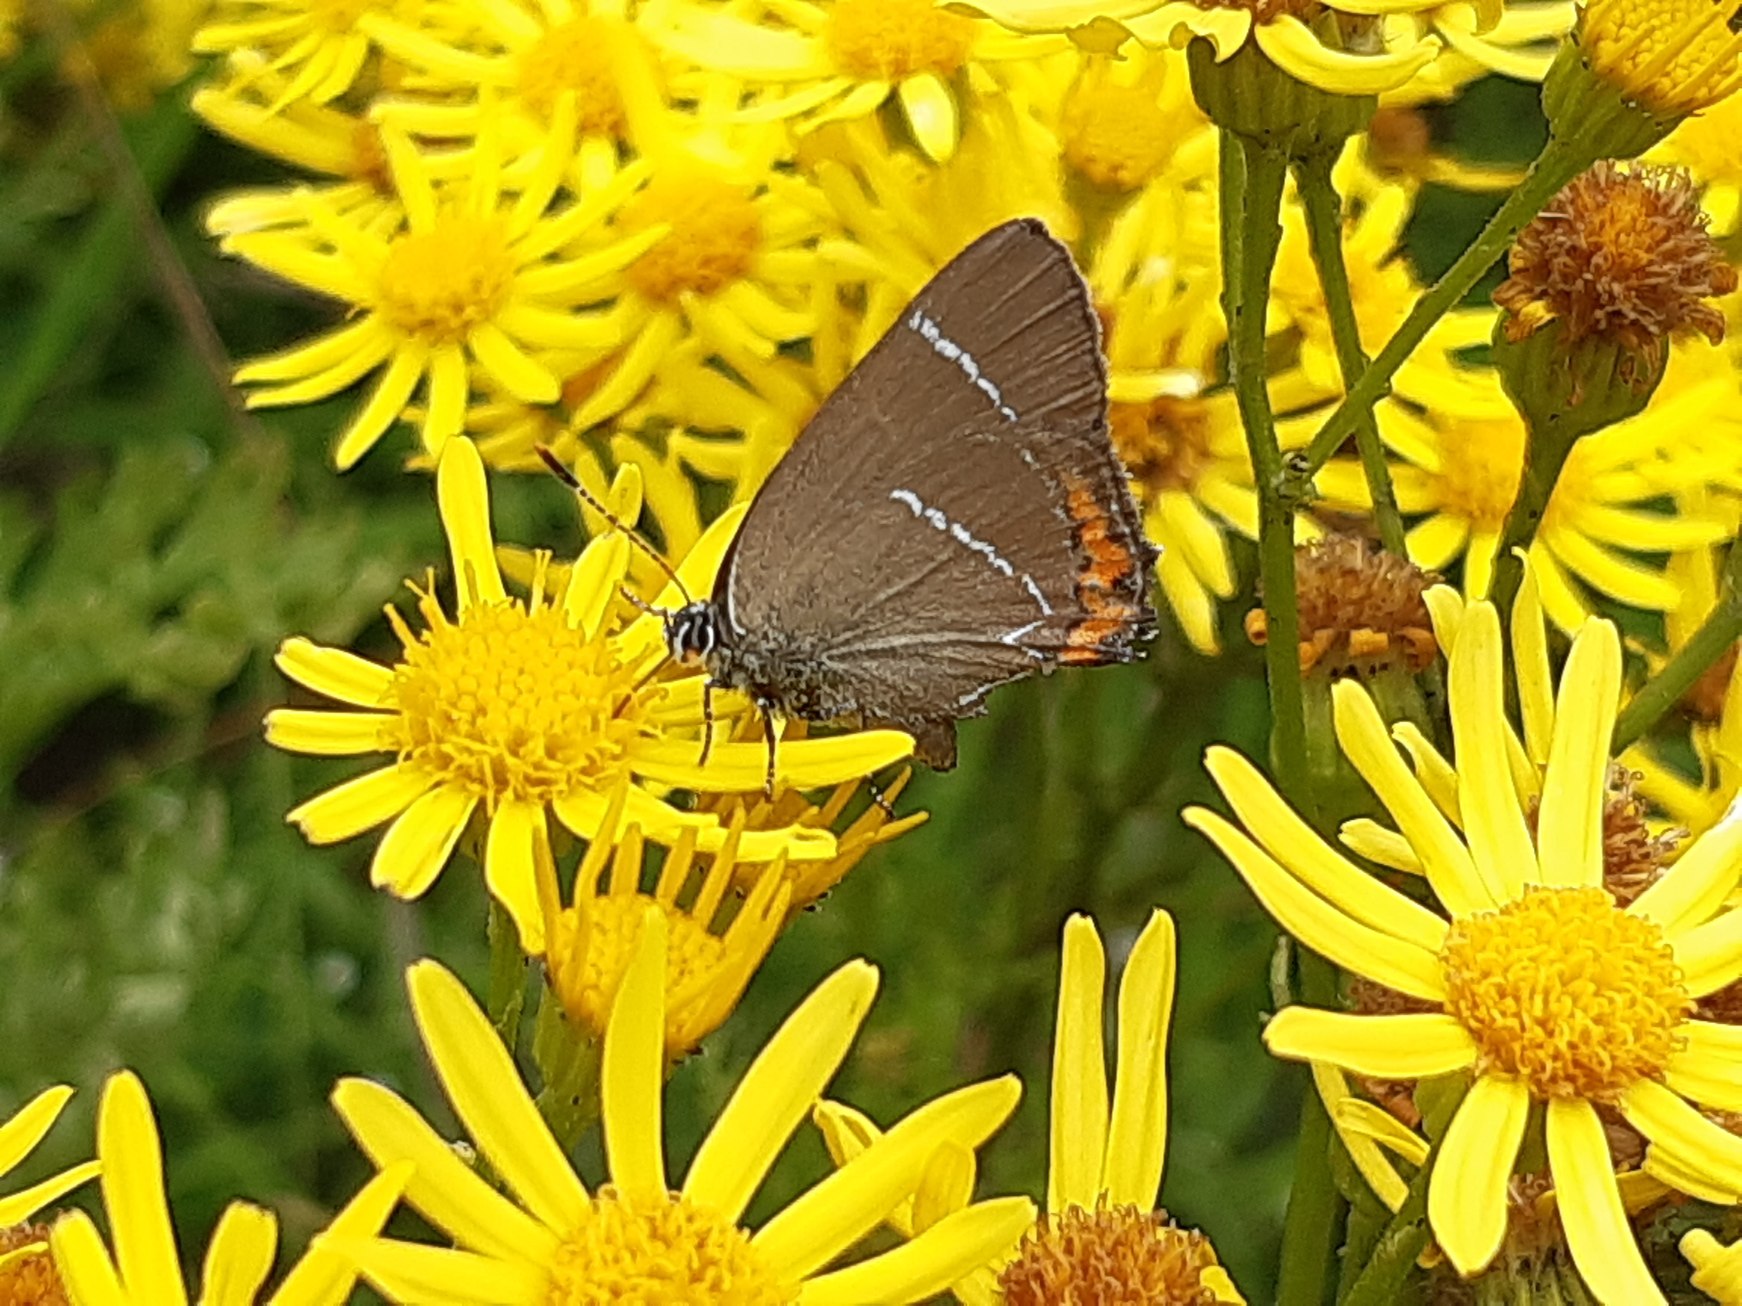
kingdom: Animalia
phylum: Arthropoda
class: Insecta
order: Lepidoptera
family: Lycaenidae
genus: Satyrium
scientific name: Satyrium w-album
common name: Det hvide W
